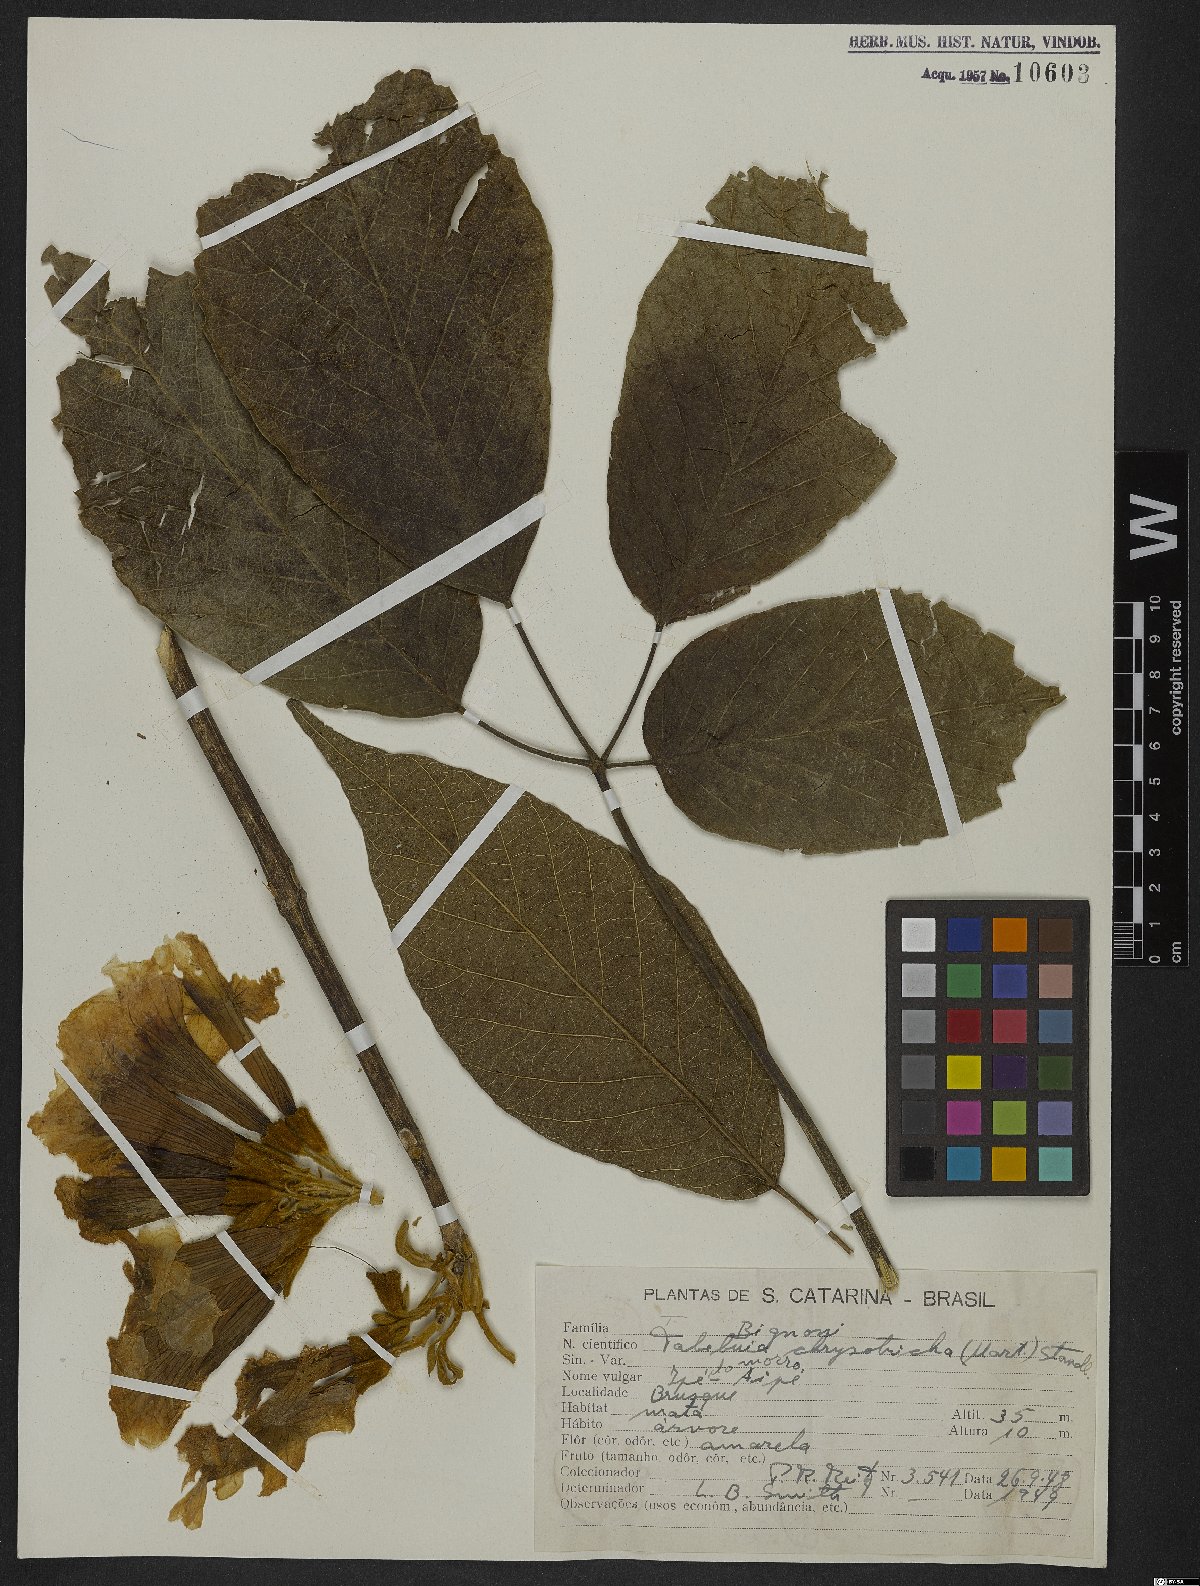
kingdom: Plantae
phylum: Tracheophyta
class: Magnoliopsida
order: Lamiales
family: Bignoniaceae
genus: Handroanthus
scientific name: Handroanthus chrysotrichus
